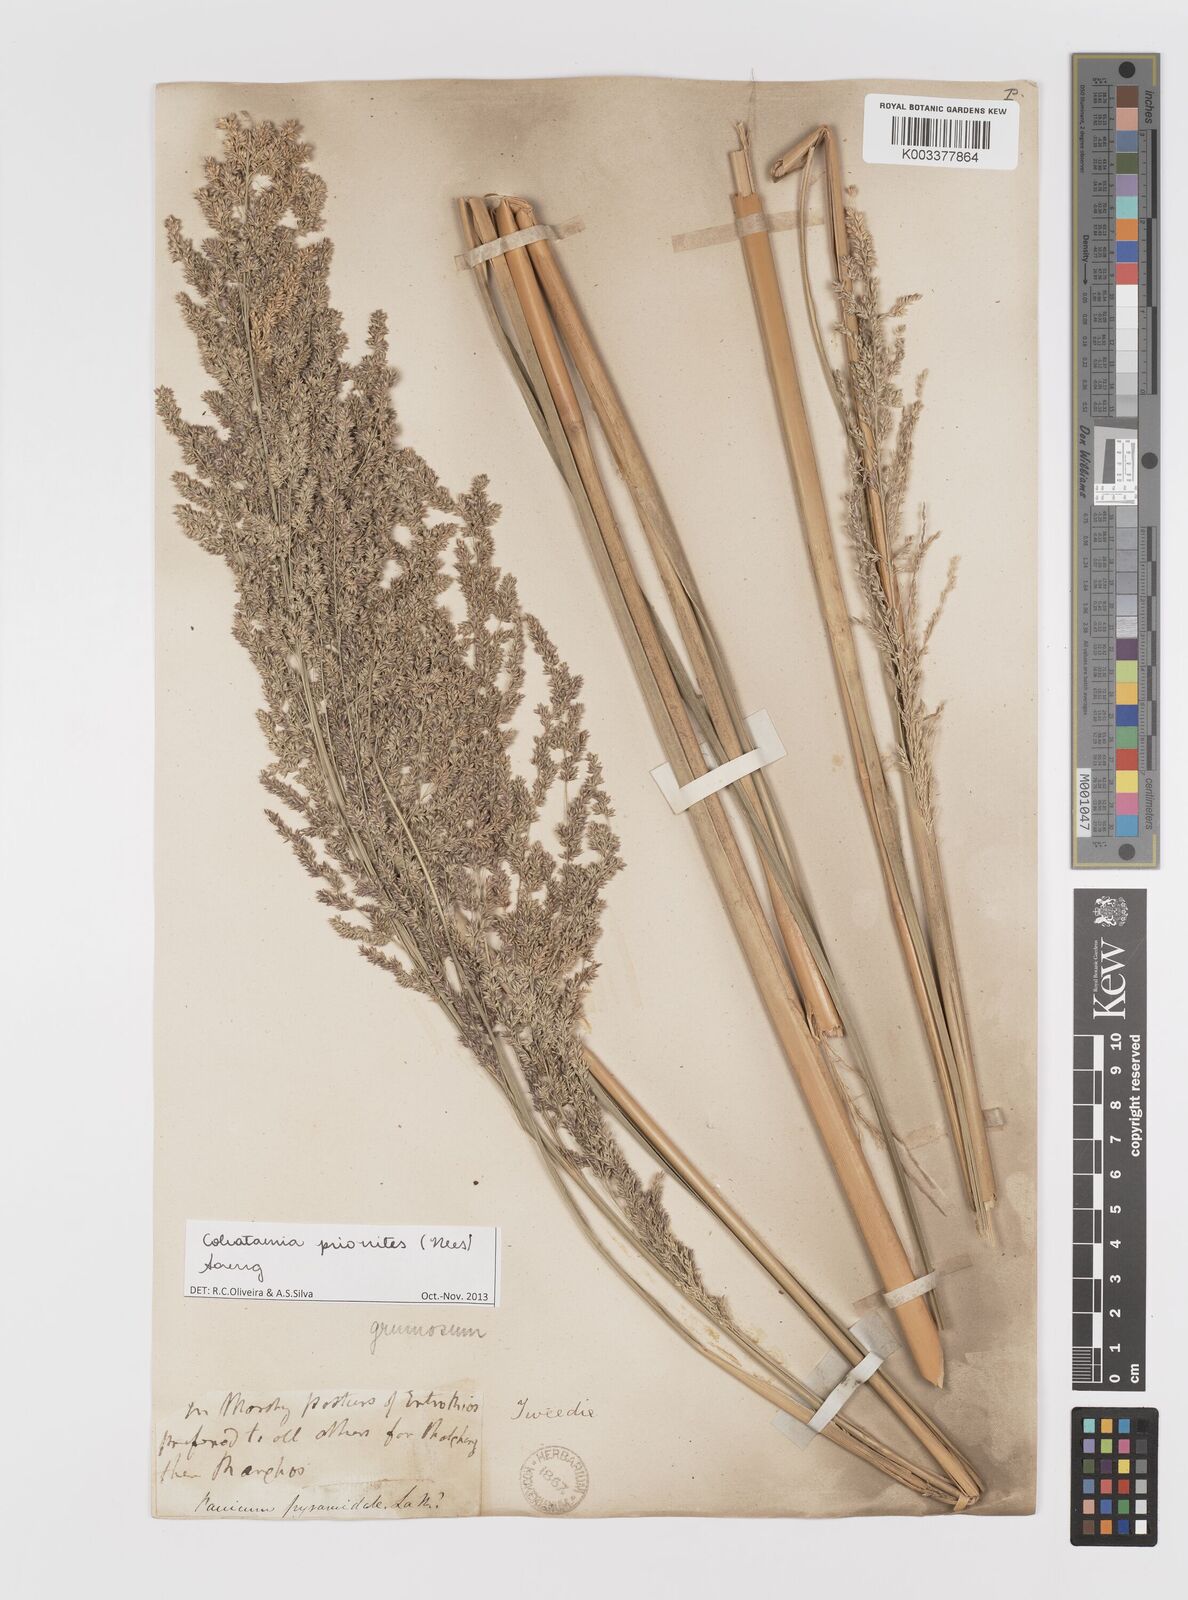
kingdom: Plantae
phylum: Tracheophyta
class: Liliopsida
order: Poales
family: Poaceae
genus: Coleataenia
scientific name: Coleataenia prionitis
